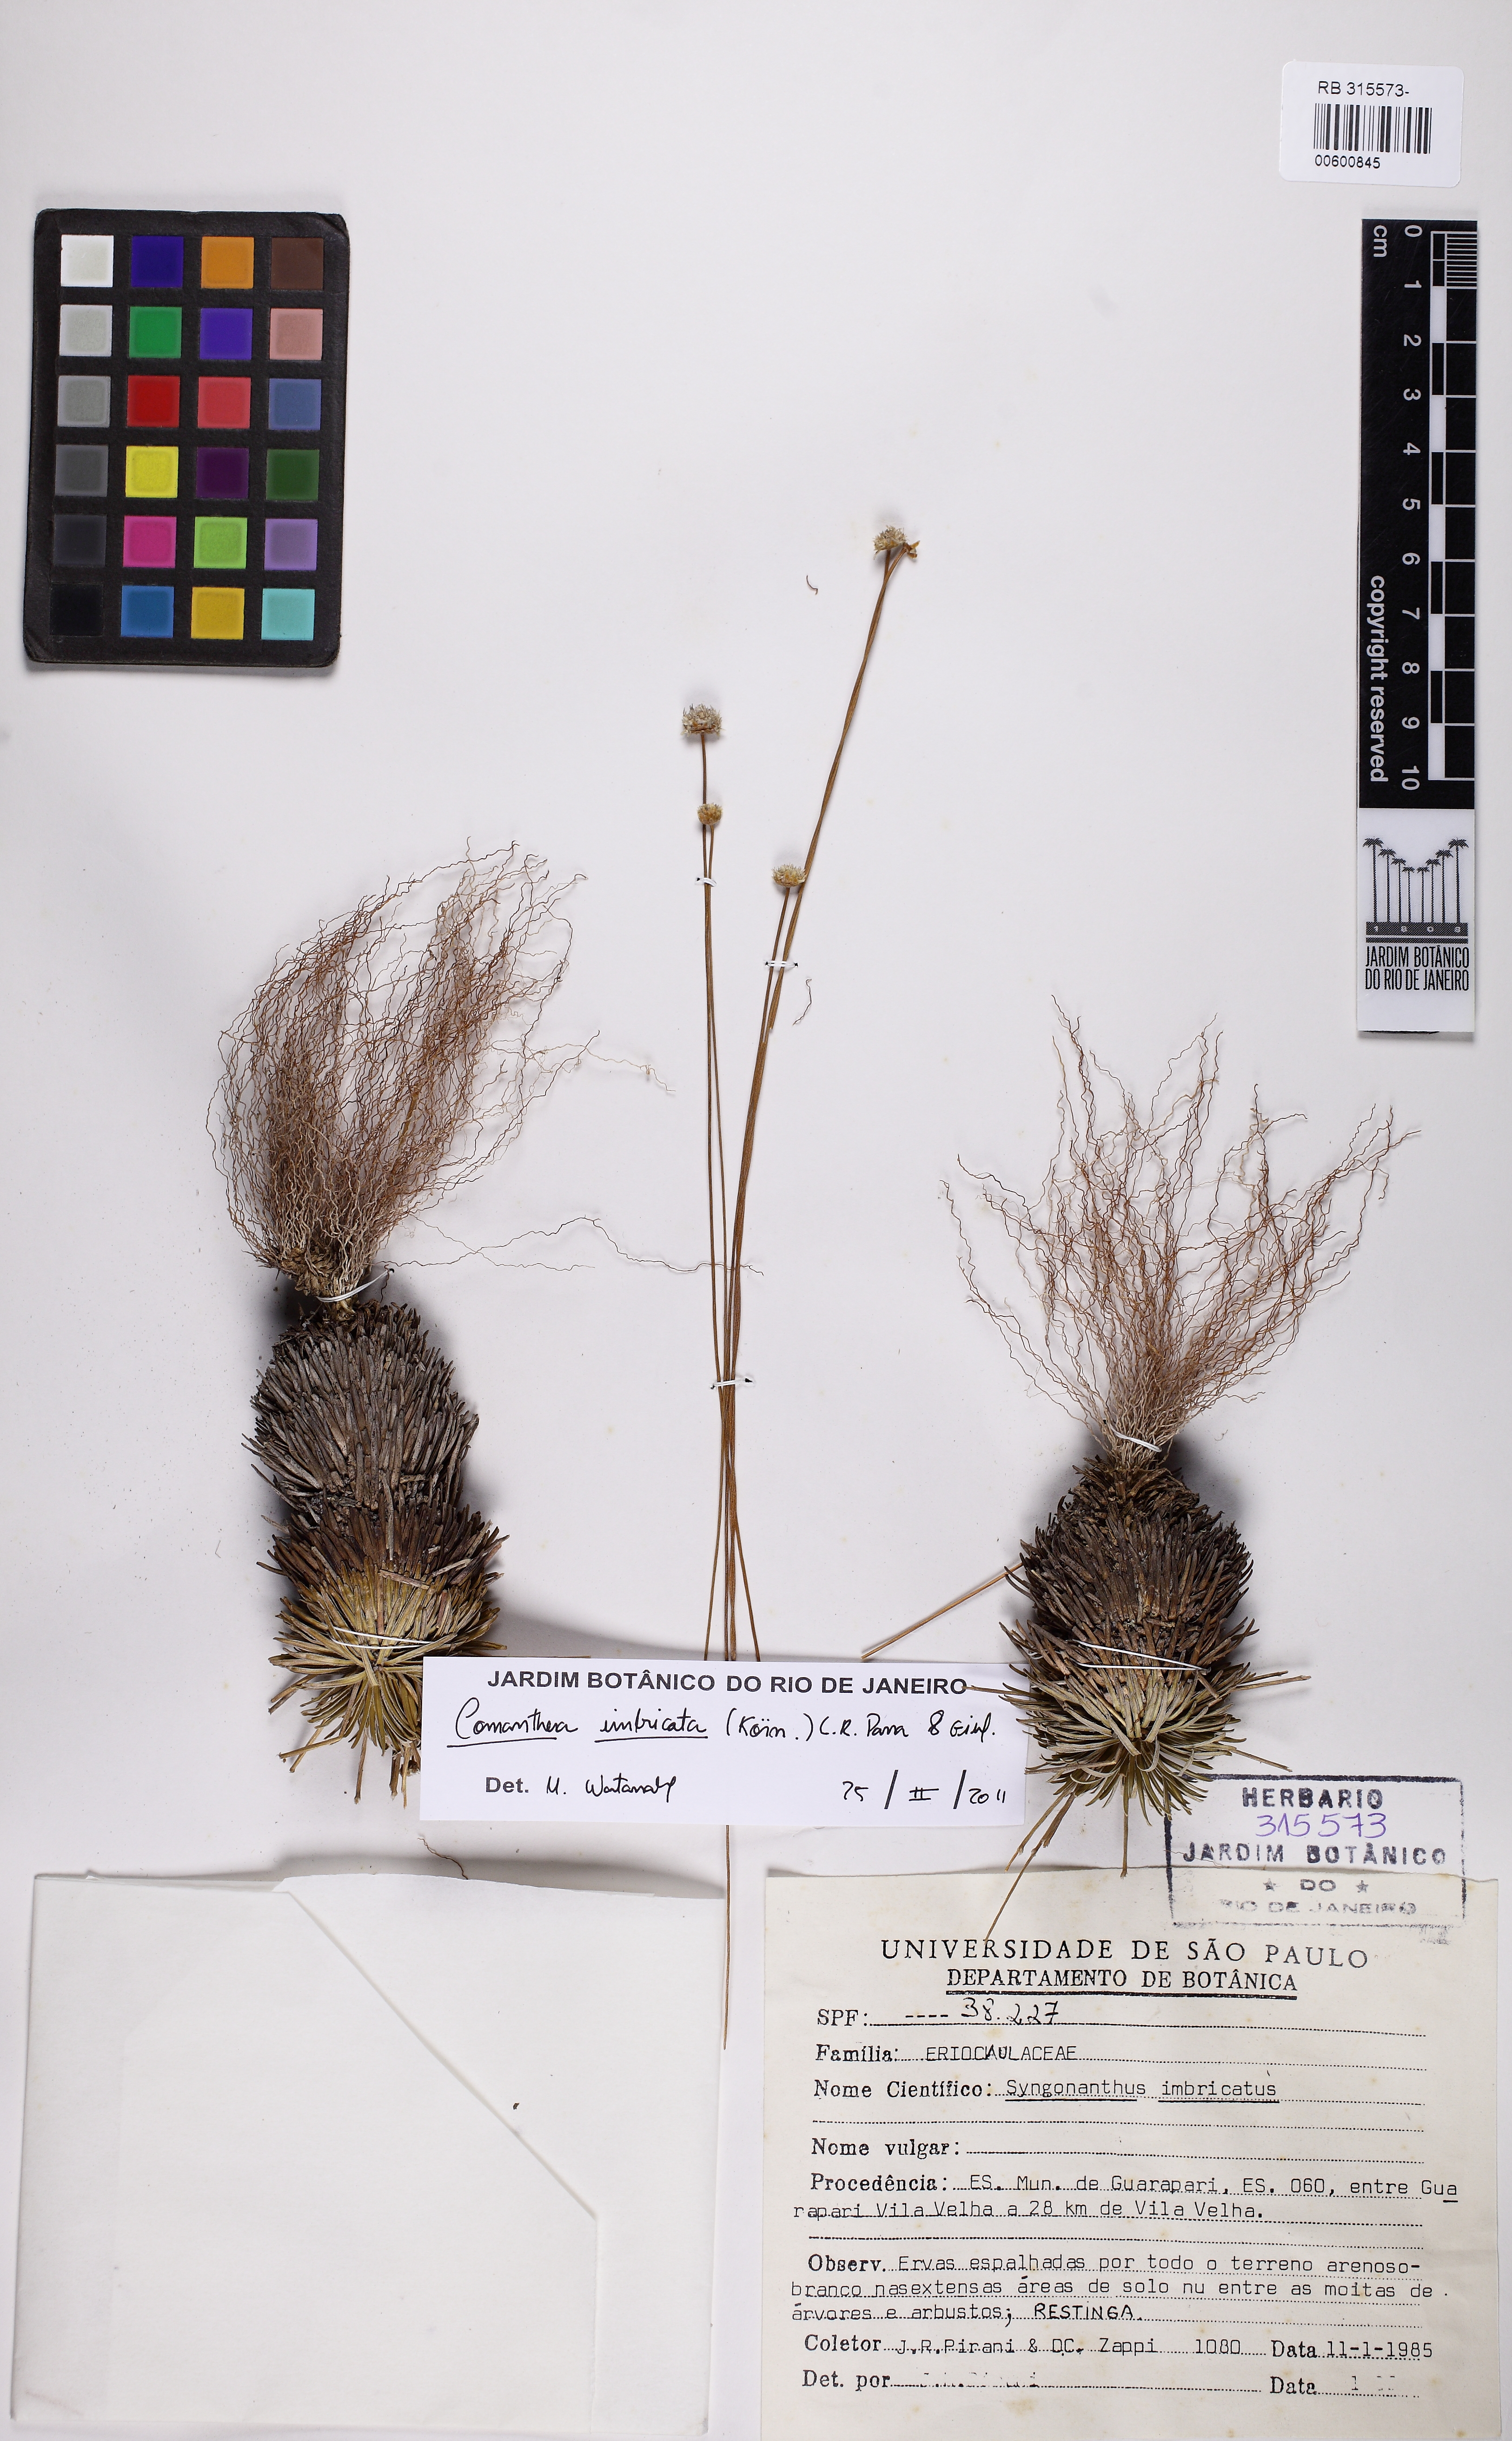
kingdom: Plantae
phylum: Tracheophyta
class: Liliopsida
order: Poales
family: Eriocaulaceae
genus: Comanthera
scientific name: Comanthera caespitosa
